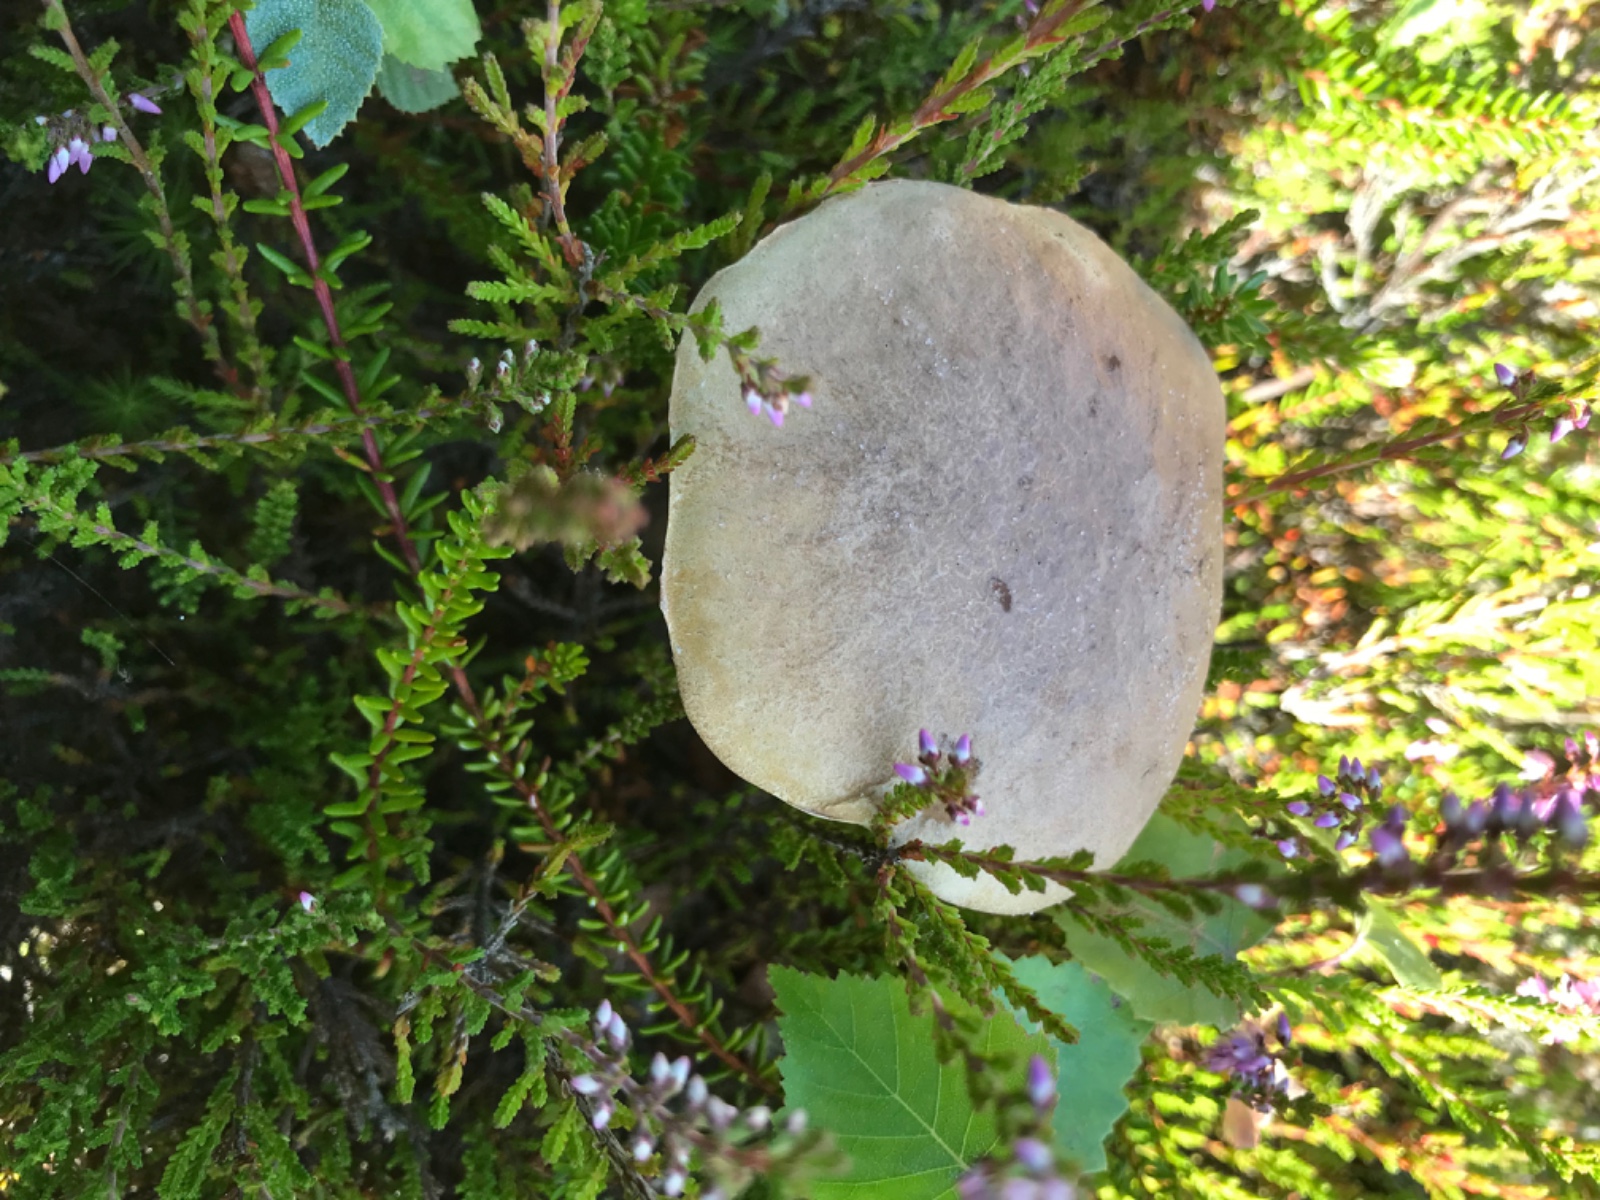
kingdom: Fungi
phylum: Basidiomycota
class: Agaricomycetes
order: Boletales
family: Boletaceae
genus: Leccinum
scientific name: Leccinum scabrum
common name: brun skælrørhat
